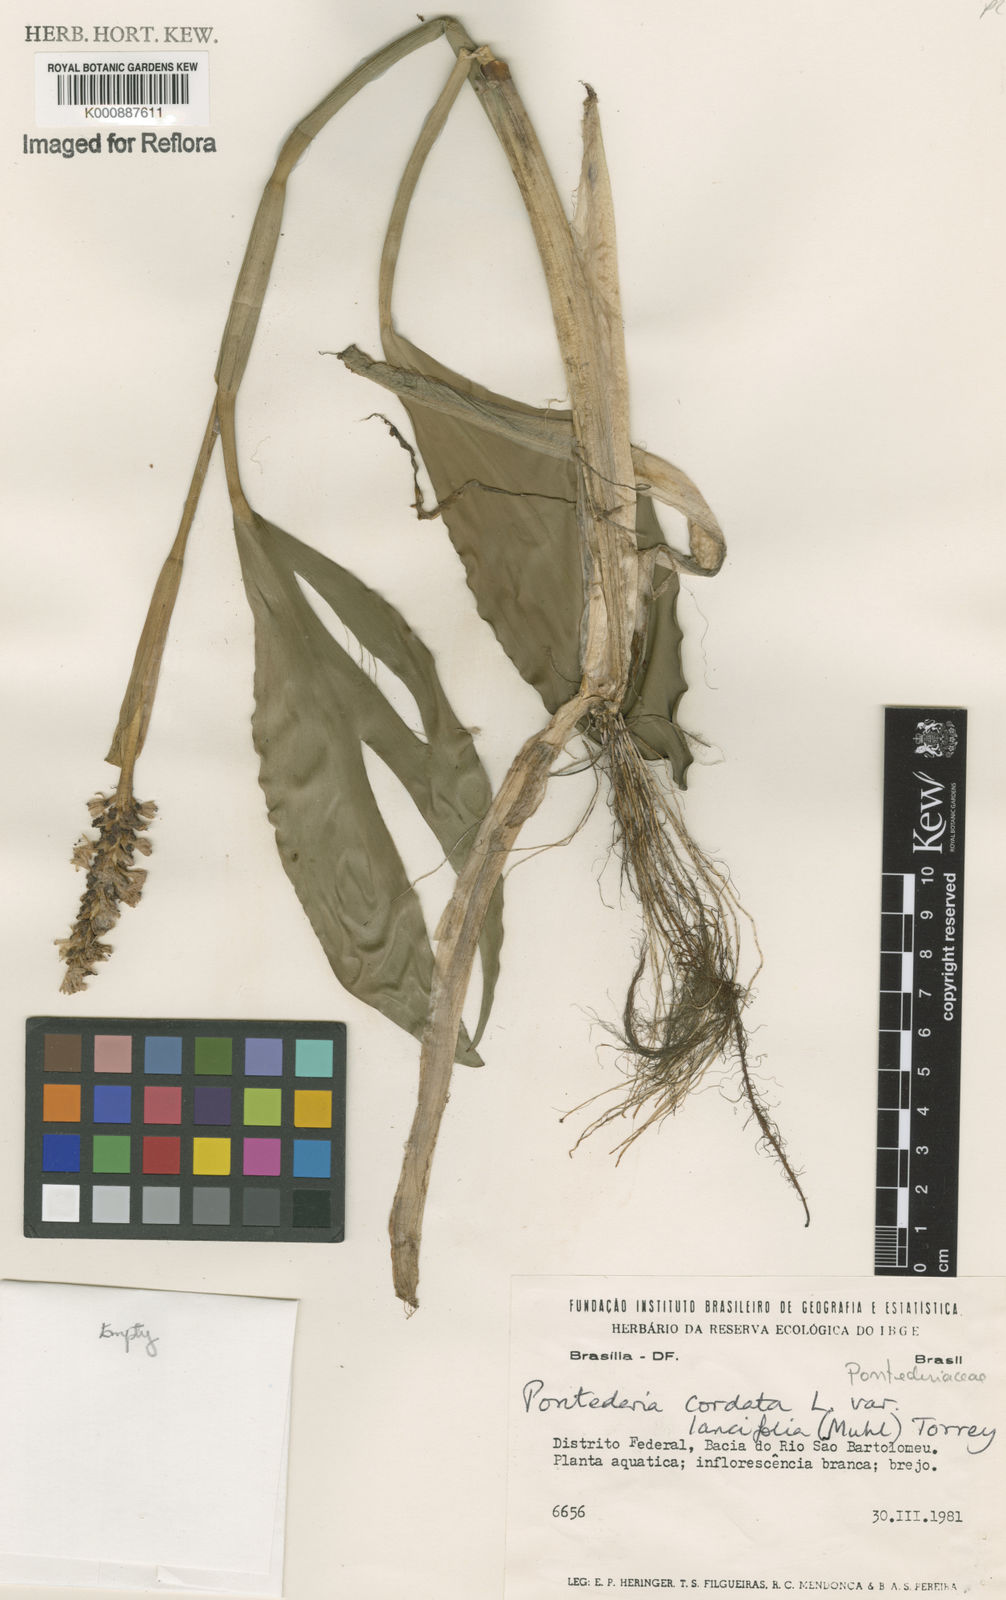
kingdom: Plantae
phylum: Tracheophyta
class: Liliopsida
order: Commelinales
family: Pontederiaceae
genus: Pontederia
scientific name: Pontederia cordata
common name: Pickerelweed
